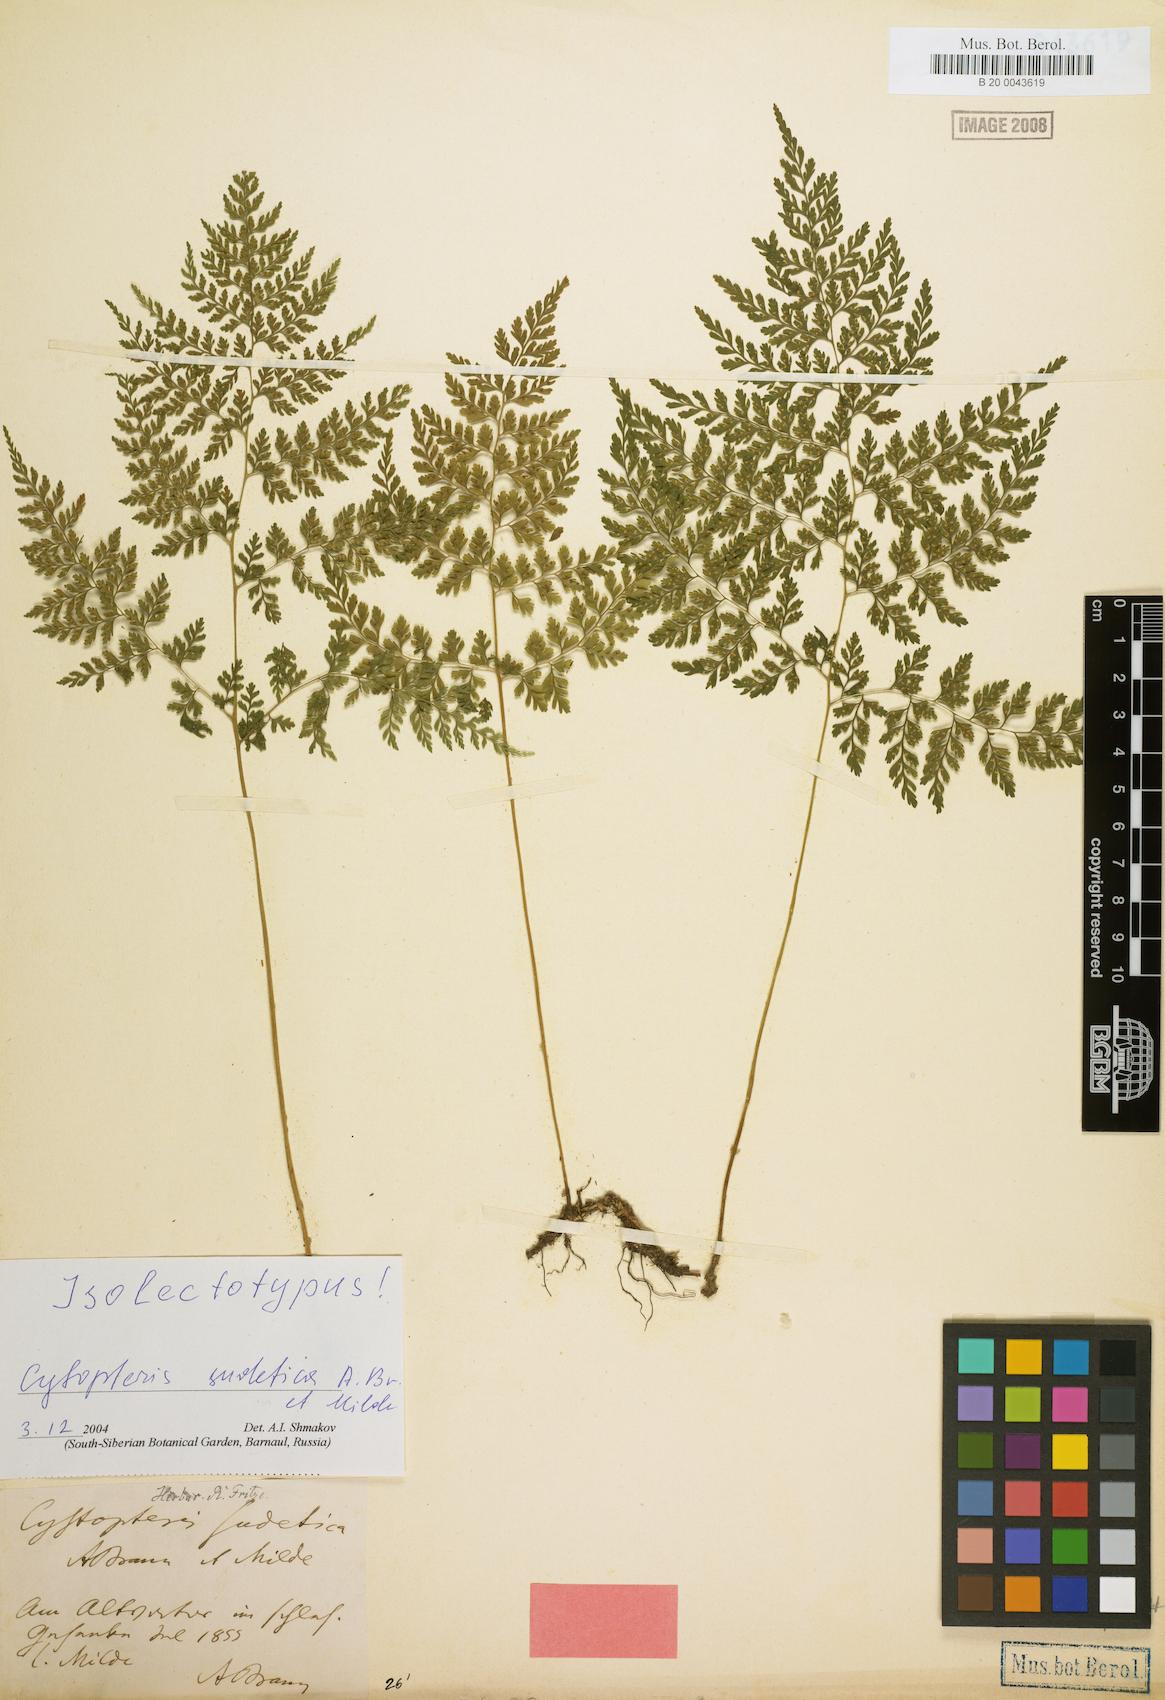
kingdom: Plantae
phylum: Tracheophyta
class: Polypodiopsida
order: Polypodiales
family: Cystopteridaceae
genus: Cystopteris
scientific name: Cystopteris sudetica
